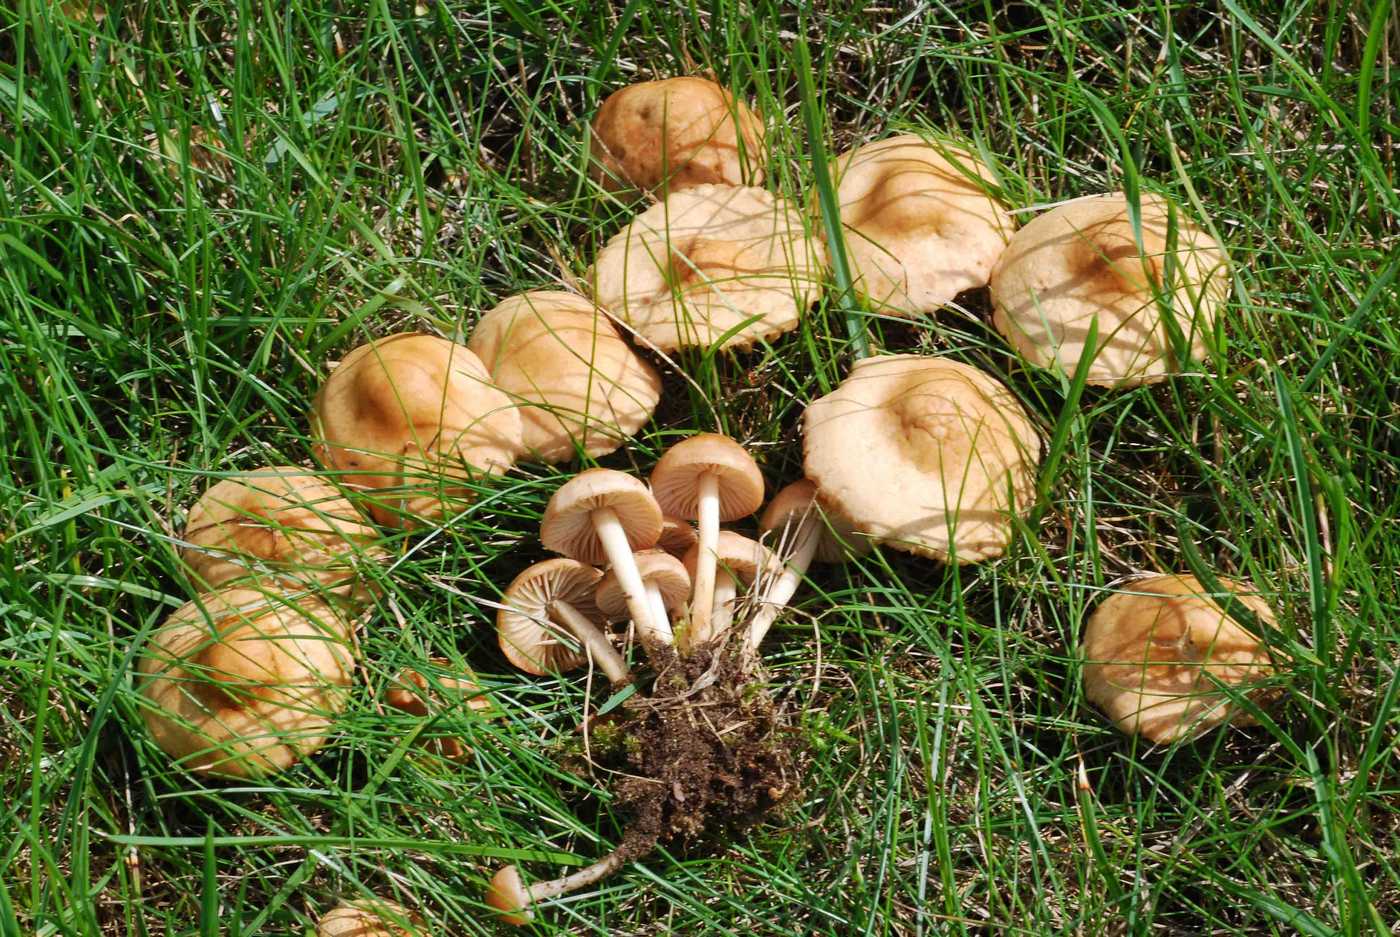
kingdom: Fungi
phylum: Basidiomycota
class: Agaricomycetes
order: Agaricales
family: Marasmiaceae
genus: Marasmius
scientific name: Marasmius oreades
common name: elledans-bruskhat
